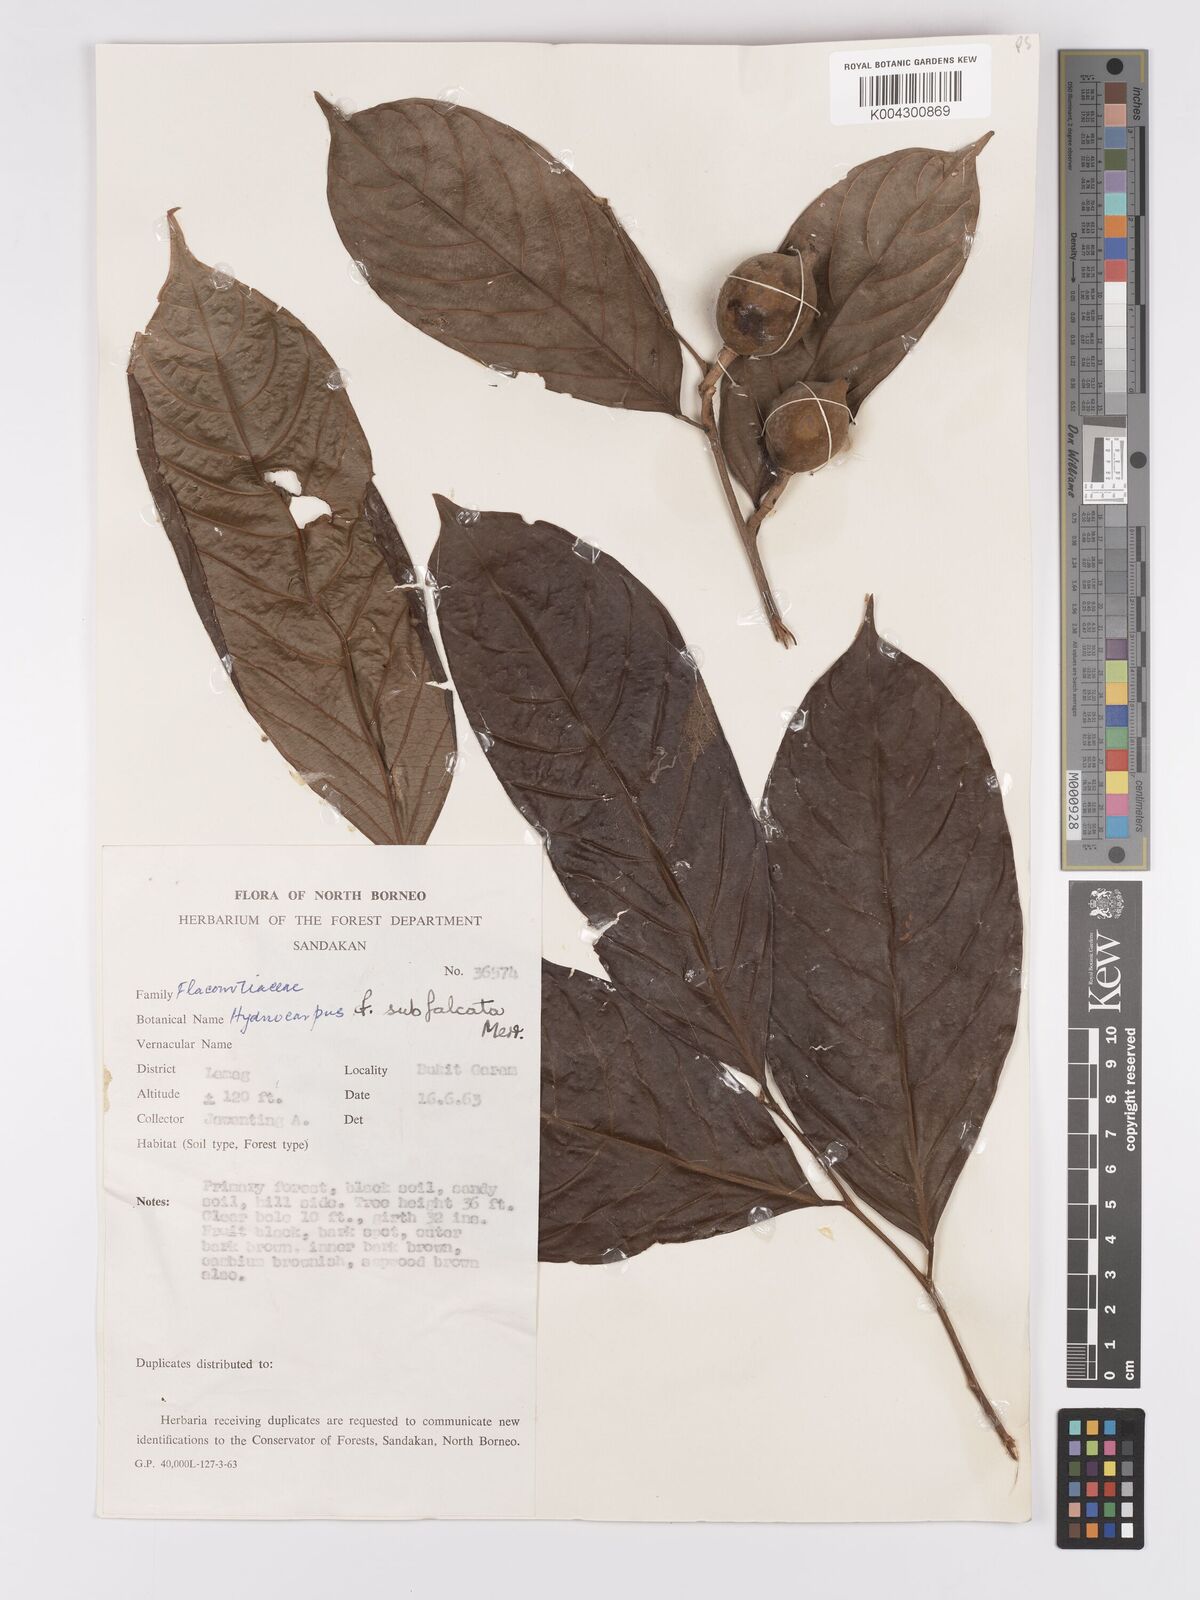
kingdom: Plantae
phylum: Tracheophyta
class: Magnoliopsida
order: Malpighiales
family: Achariaceae
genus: Hydnocarpus
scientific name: Hydnocarpus subfalcatus
